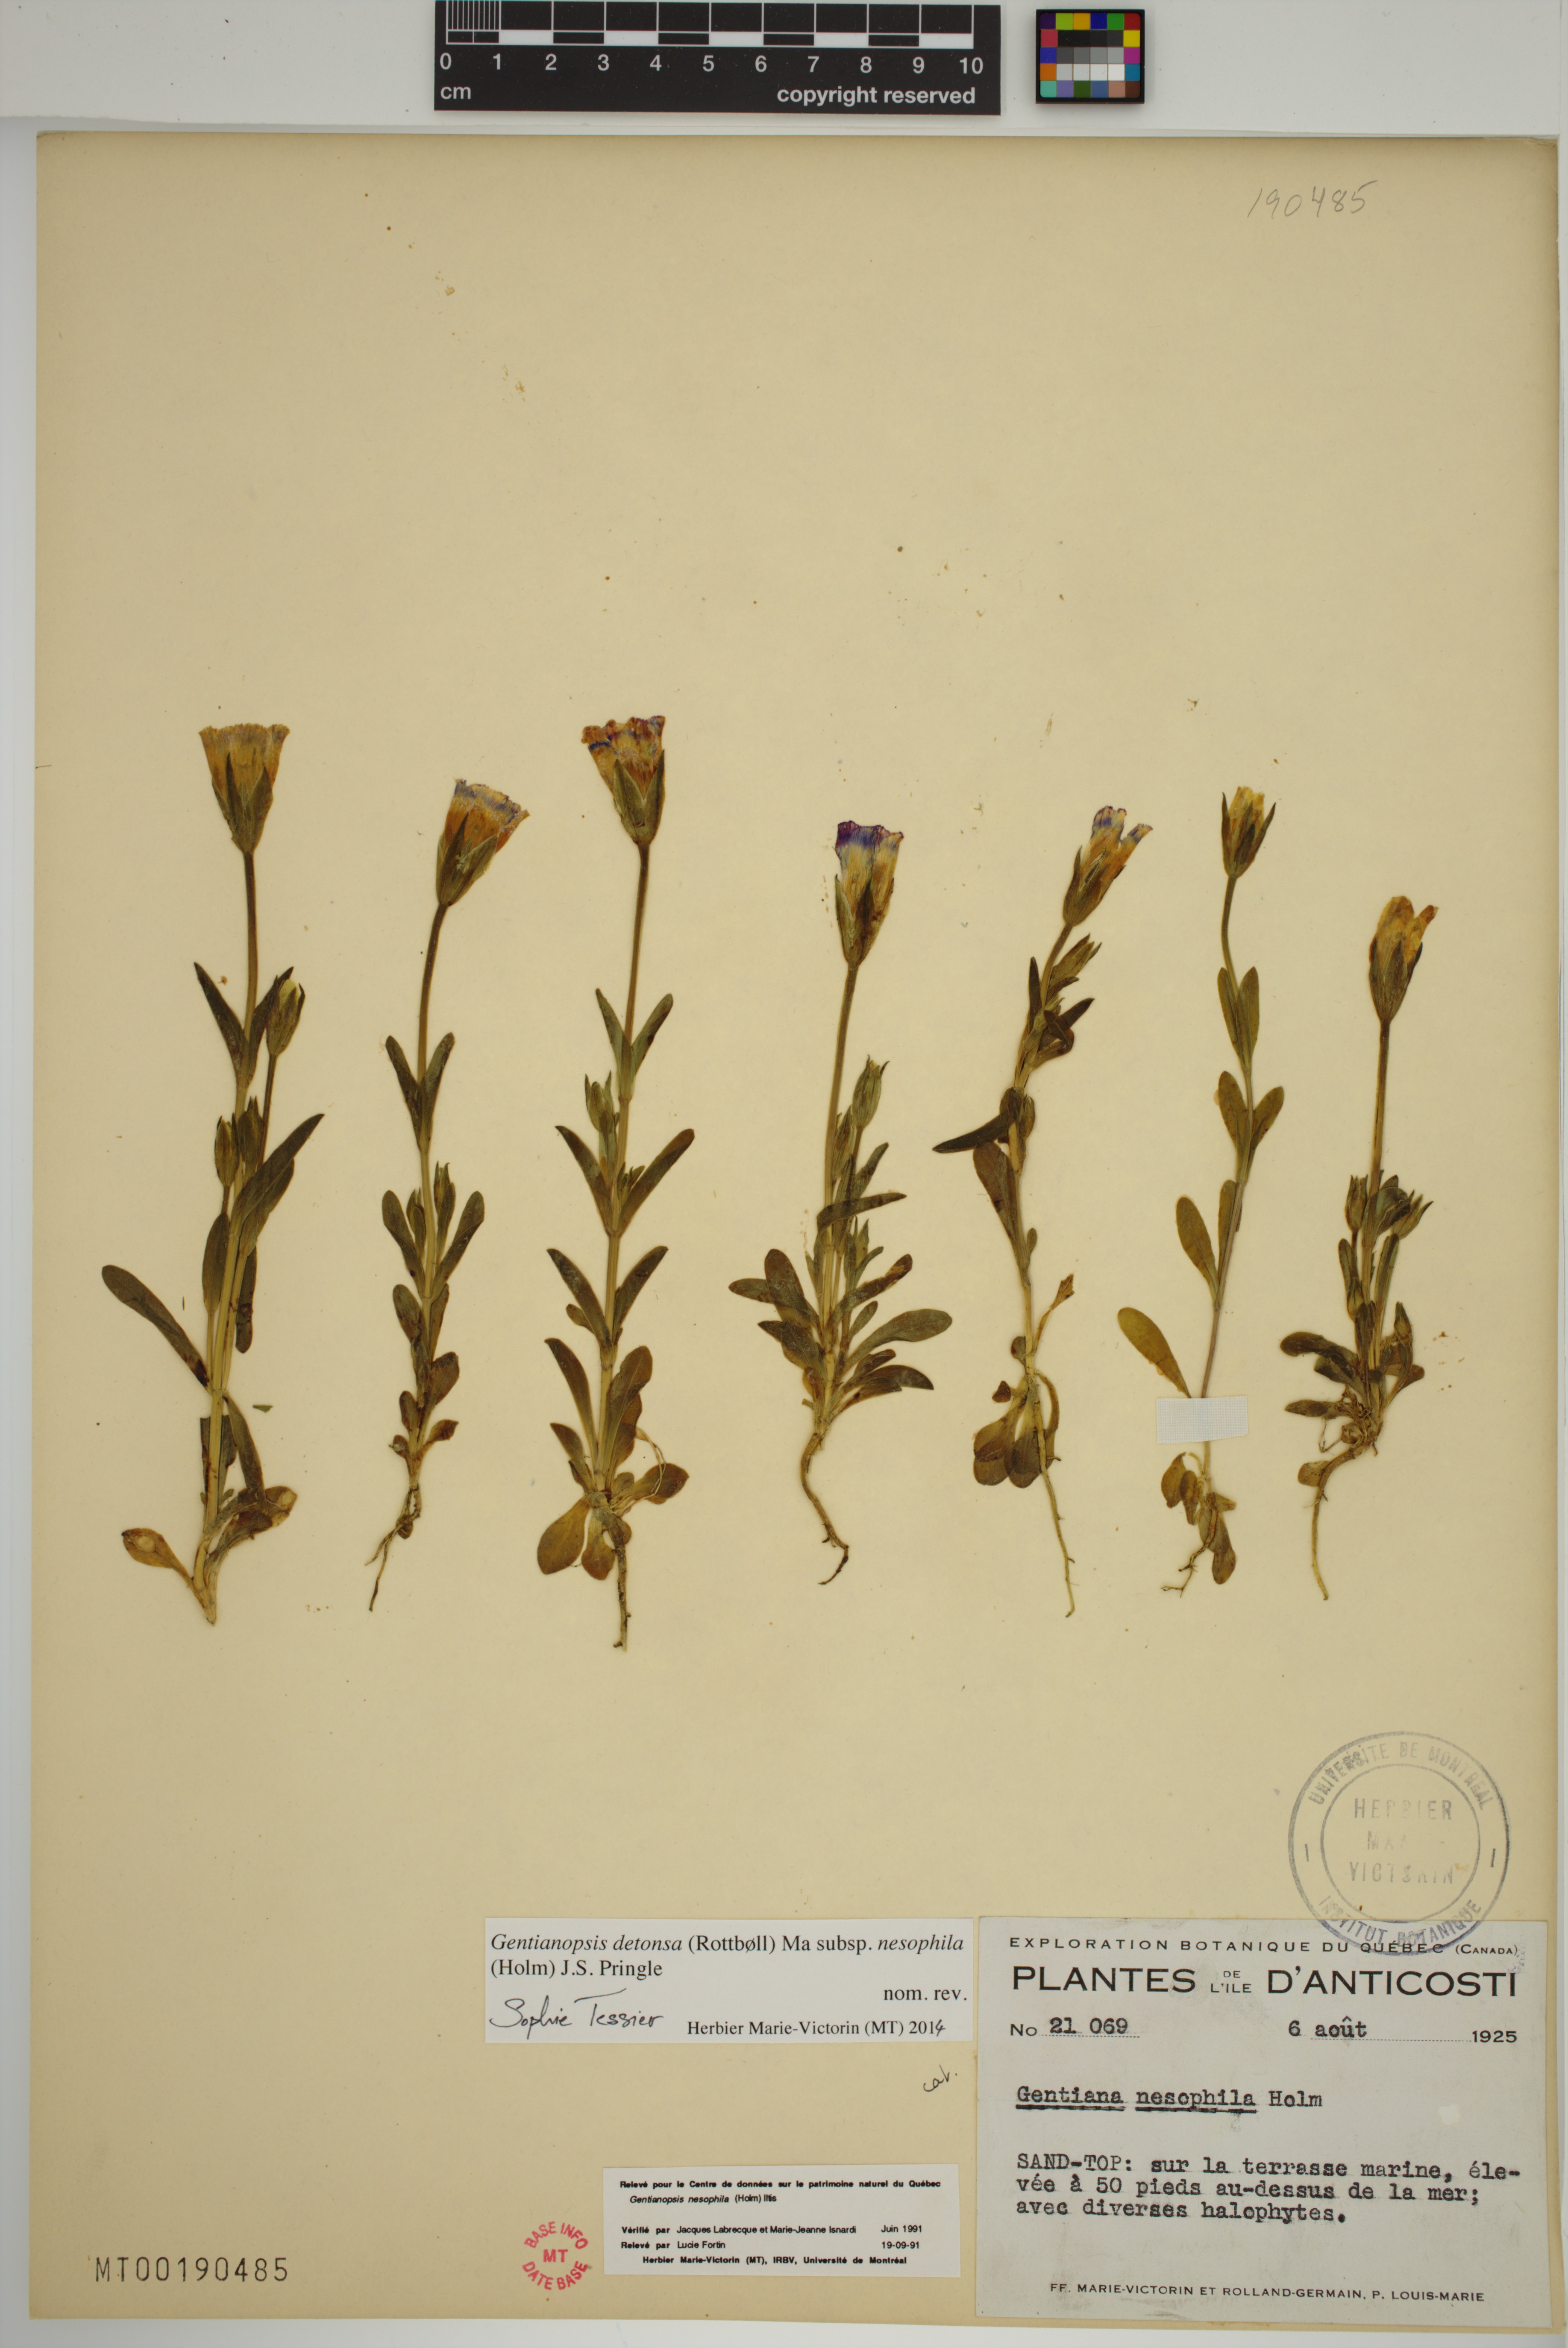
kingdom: Plantae
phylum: Tracheophyta
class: Magnoliopsida
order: Gentianales
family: Gentianaceae
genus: Gentianopsis
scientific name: Gentianopsis nesophila
